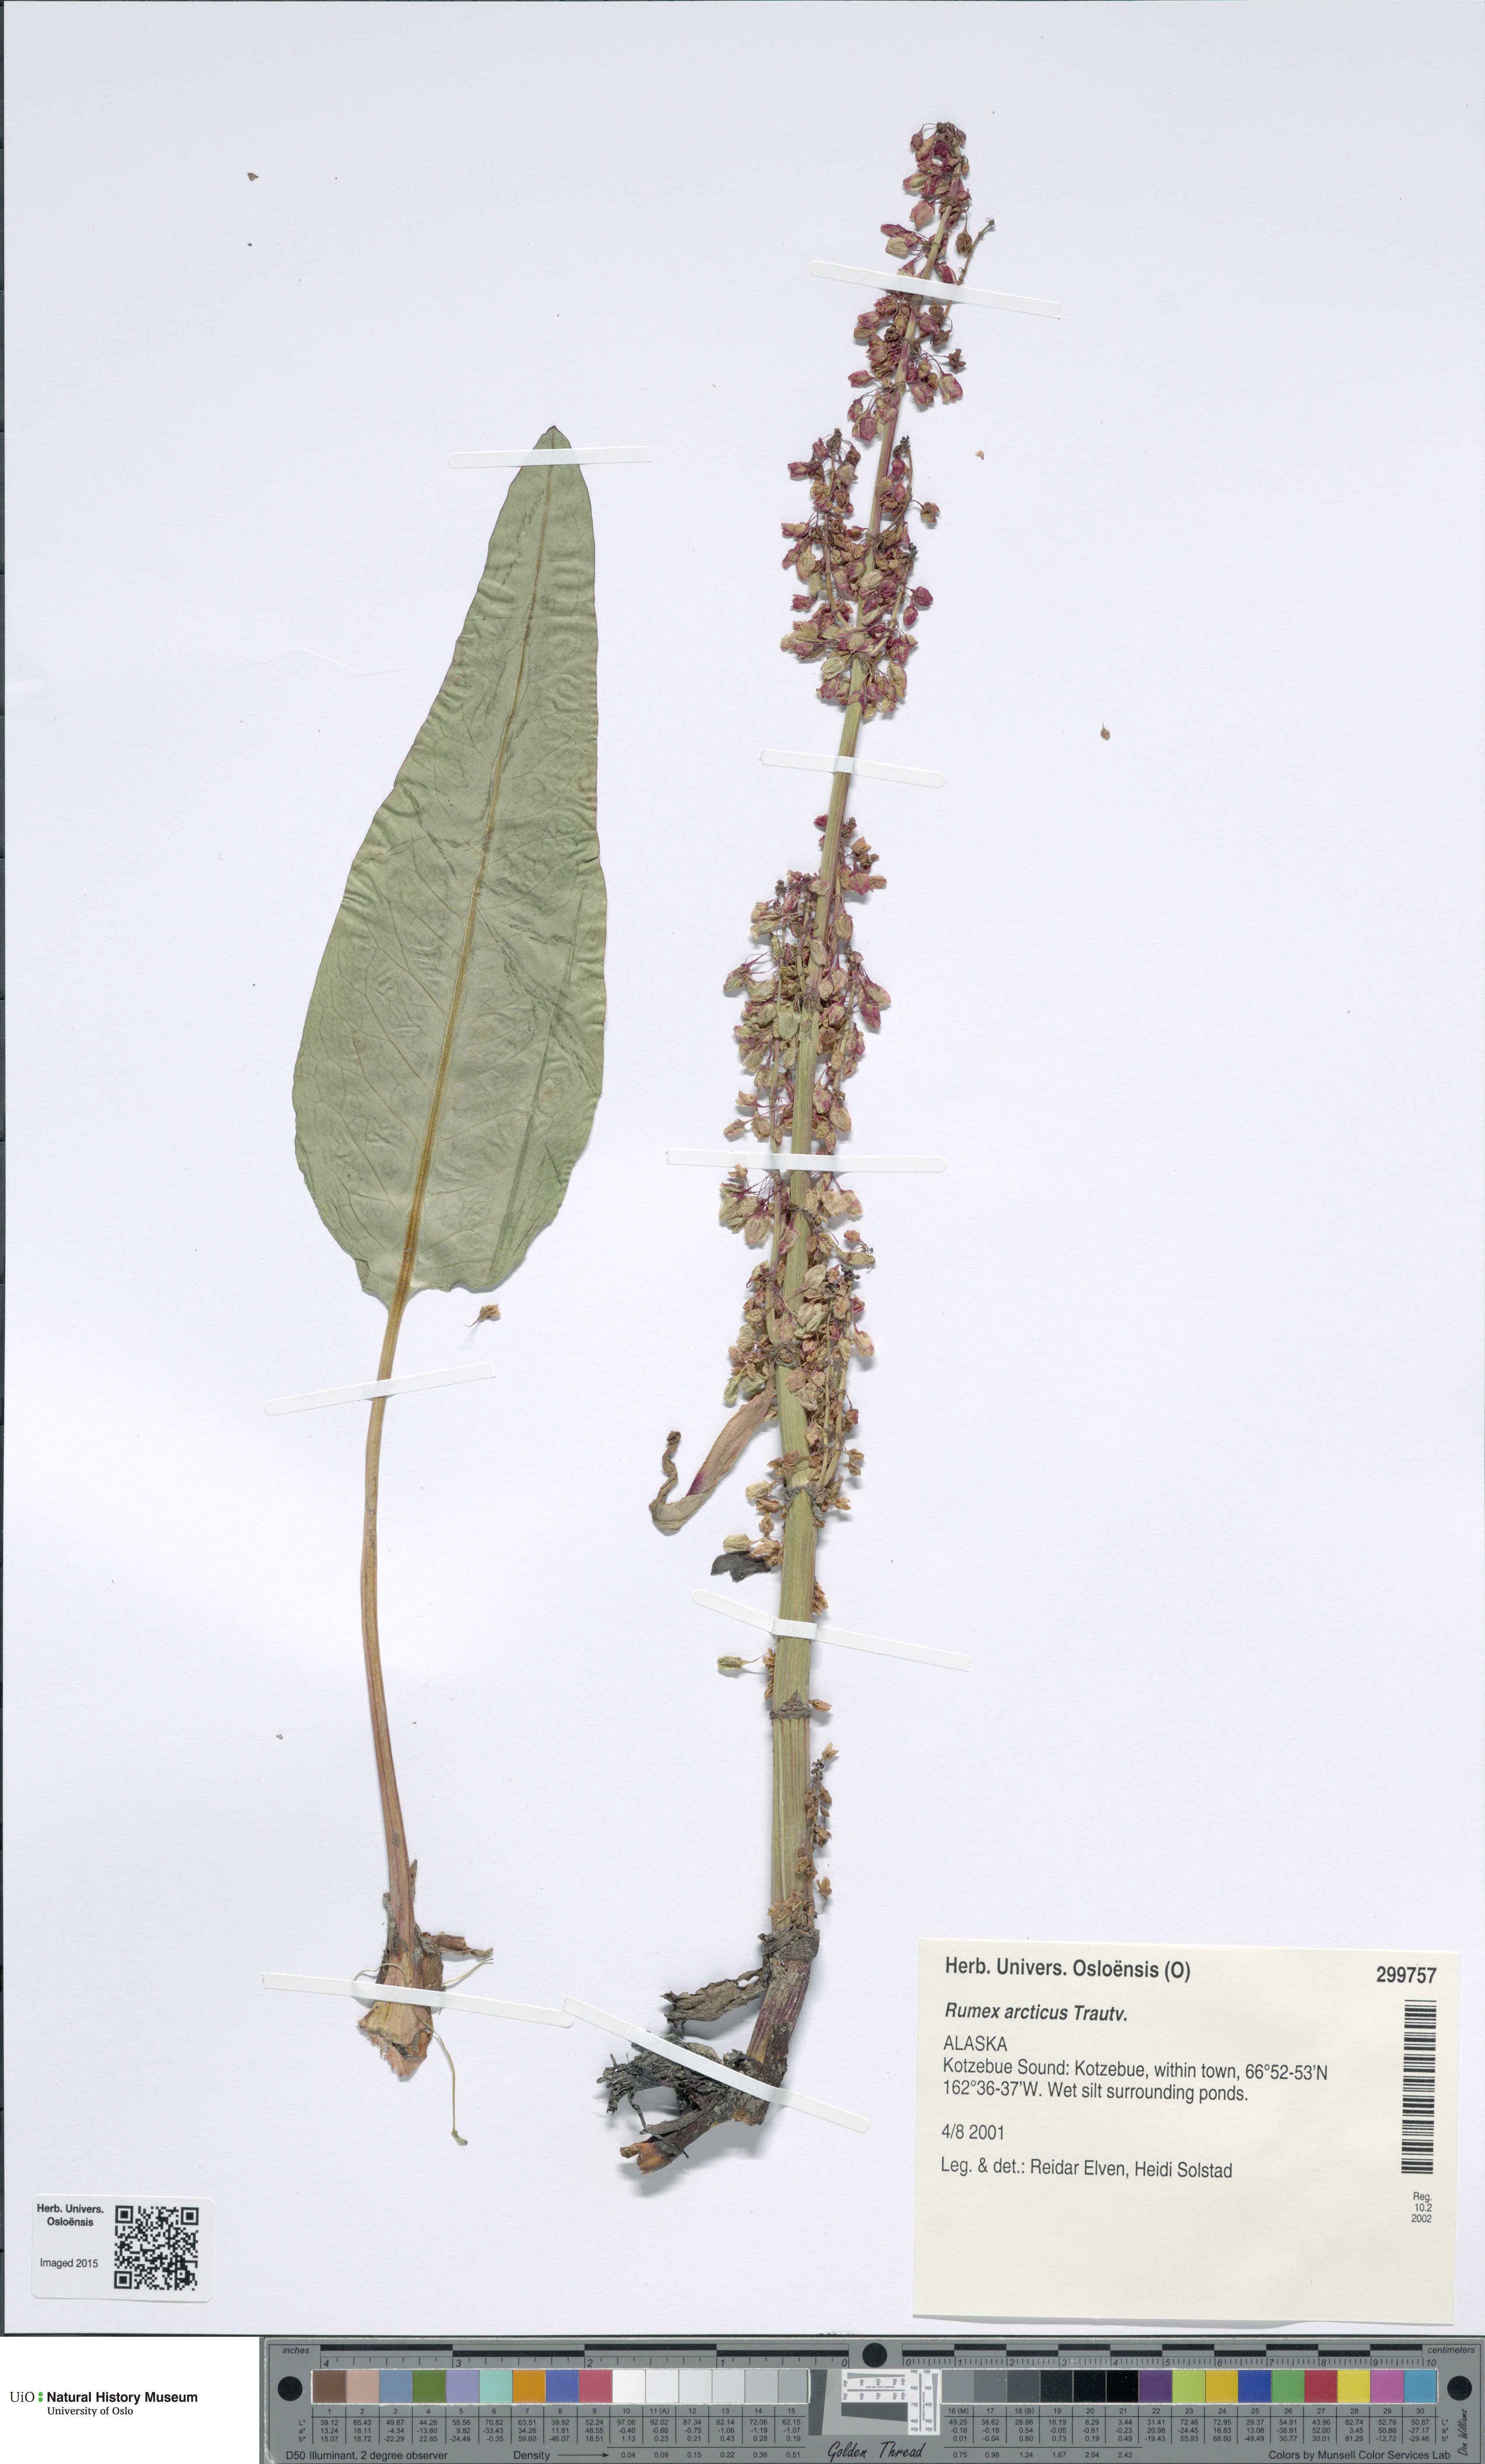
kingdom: Plantae
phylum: Tracheophyta
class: Magnoliopsida
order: Caryophyllales
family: Polygonaceae
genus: Rumex
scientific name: Rumex arcticus
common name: Arctic dock
